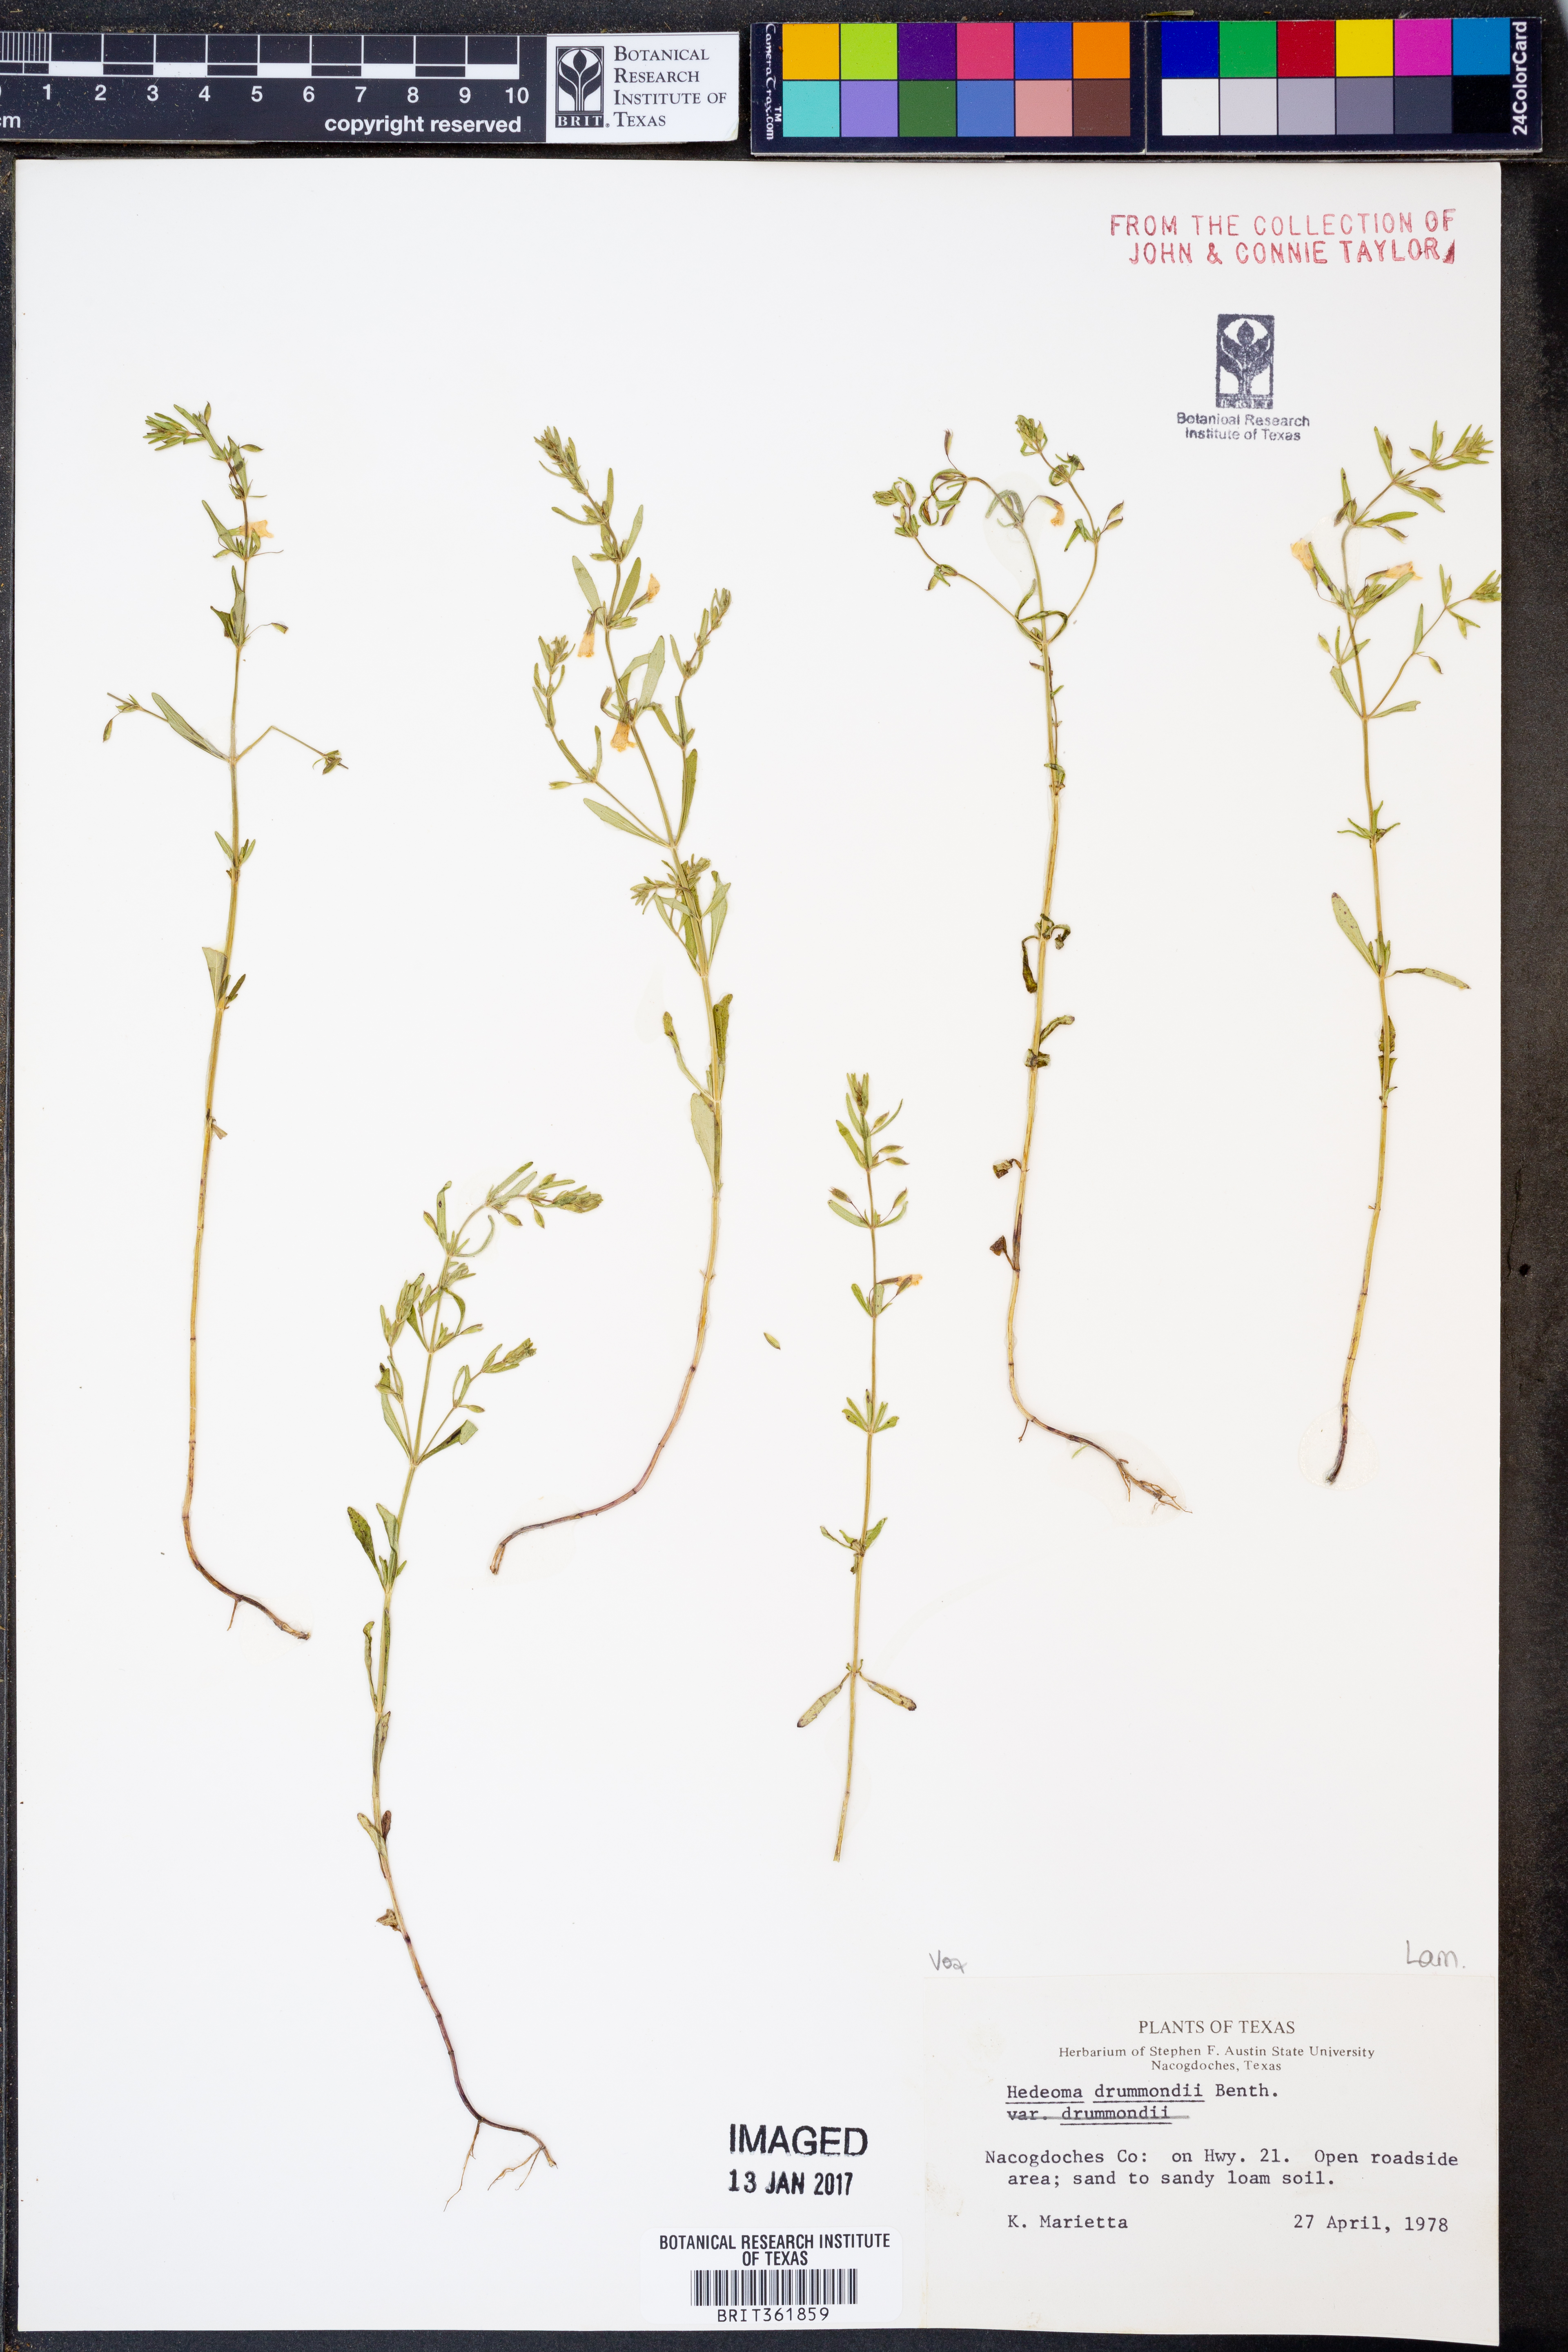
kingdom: Plantae
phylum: Tracheophyta
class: Magnoliopsida
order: Lamiales
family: Lamiaceae
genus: Hedeoma
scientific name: Hedeoma drummondii
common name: New mexico pennyroyal
